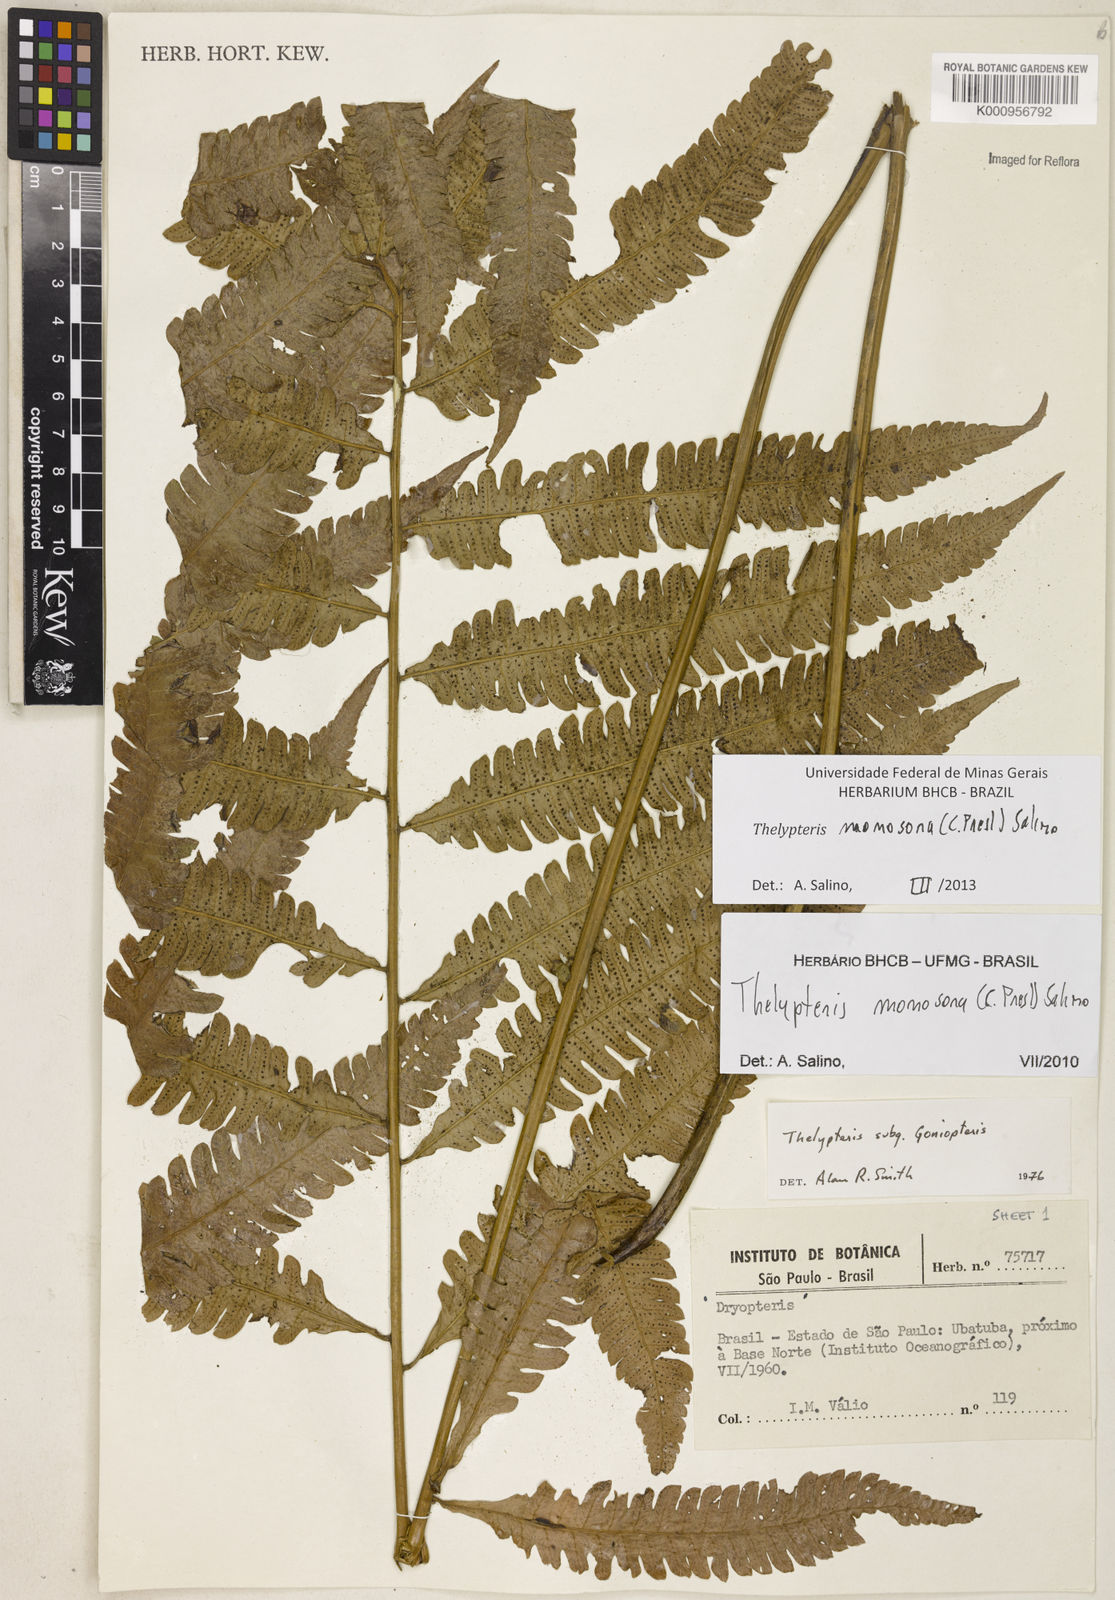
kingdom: Plantae
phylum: Tracheophyta
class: Polypodiopsida
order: Polypodiales
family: Thelypteridaceae
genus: Goniopteris
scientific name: Goniopteris monosora
